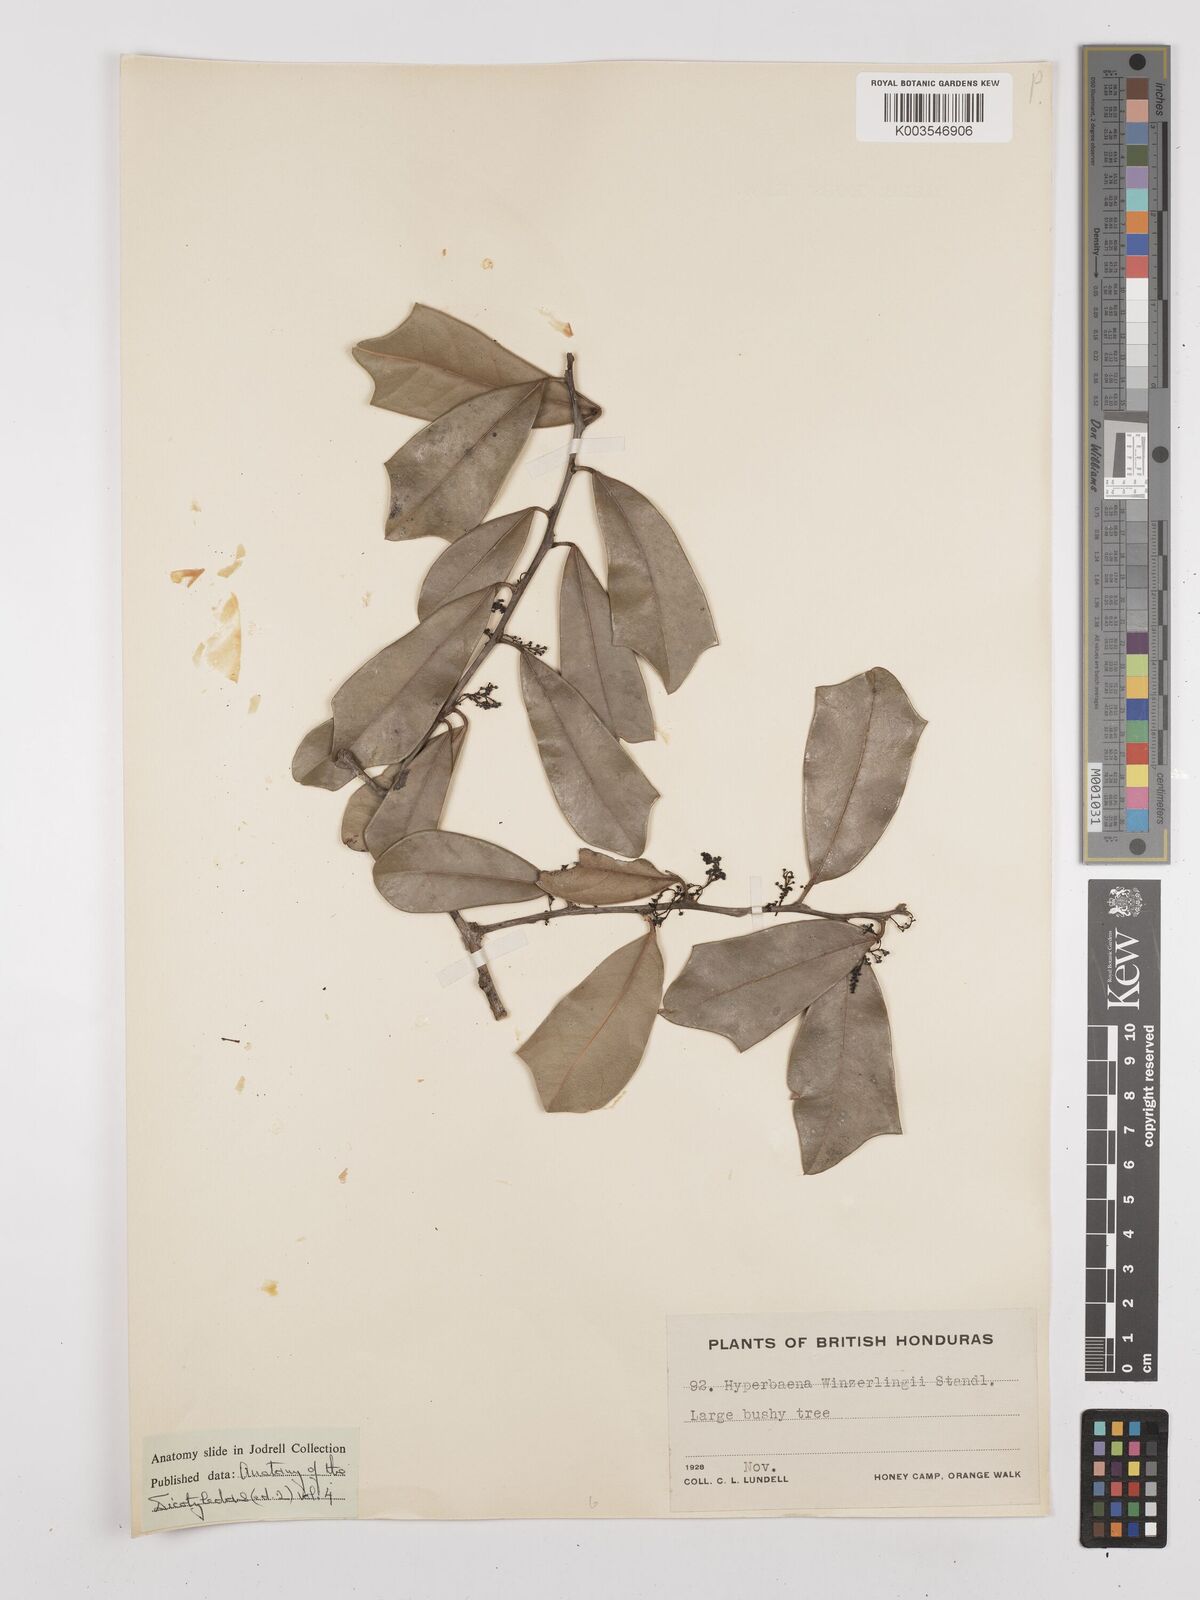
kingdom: Plantae
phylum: Tracheophyta
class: Magnoliopsida
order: Ranunculales
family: Menispermaceae
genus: Hyperbaena
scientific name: Hyperbaena winzerlingii
